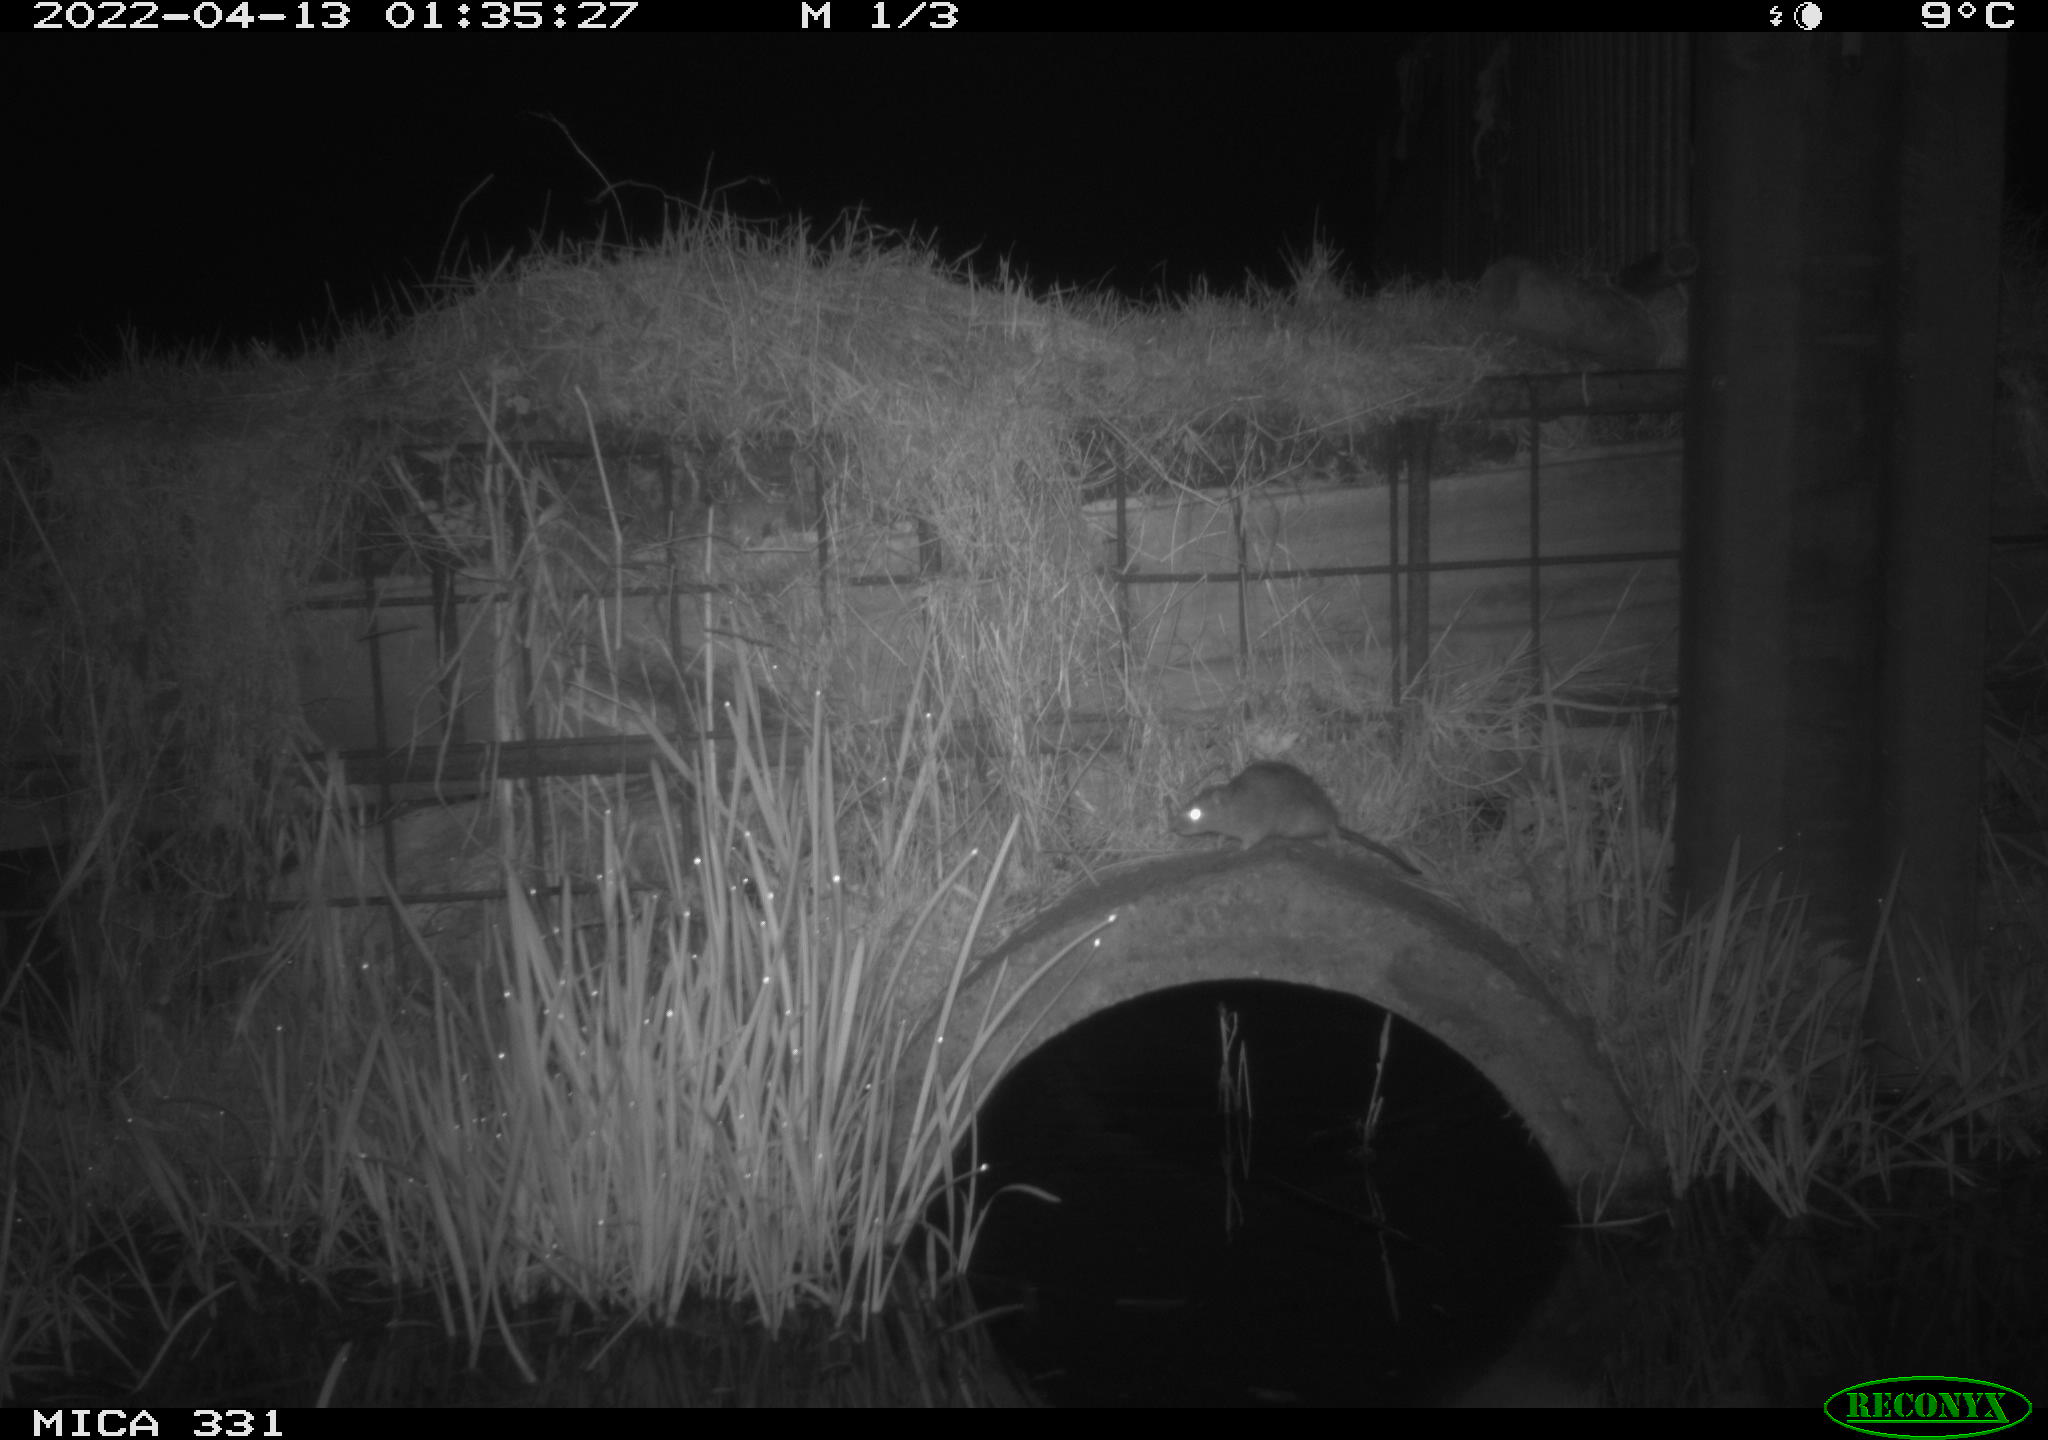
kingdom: Animalia
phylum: Chordata
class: Mammalia
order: Rodentia
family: Muridae
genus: Rattus
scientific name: Rattus norvegicus
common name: Brown rat
